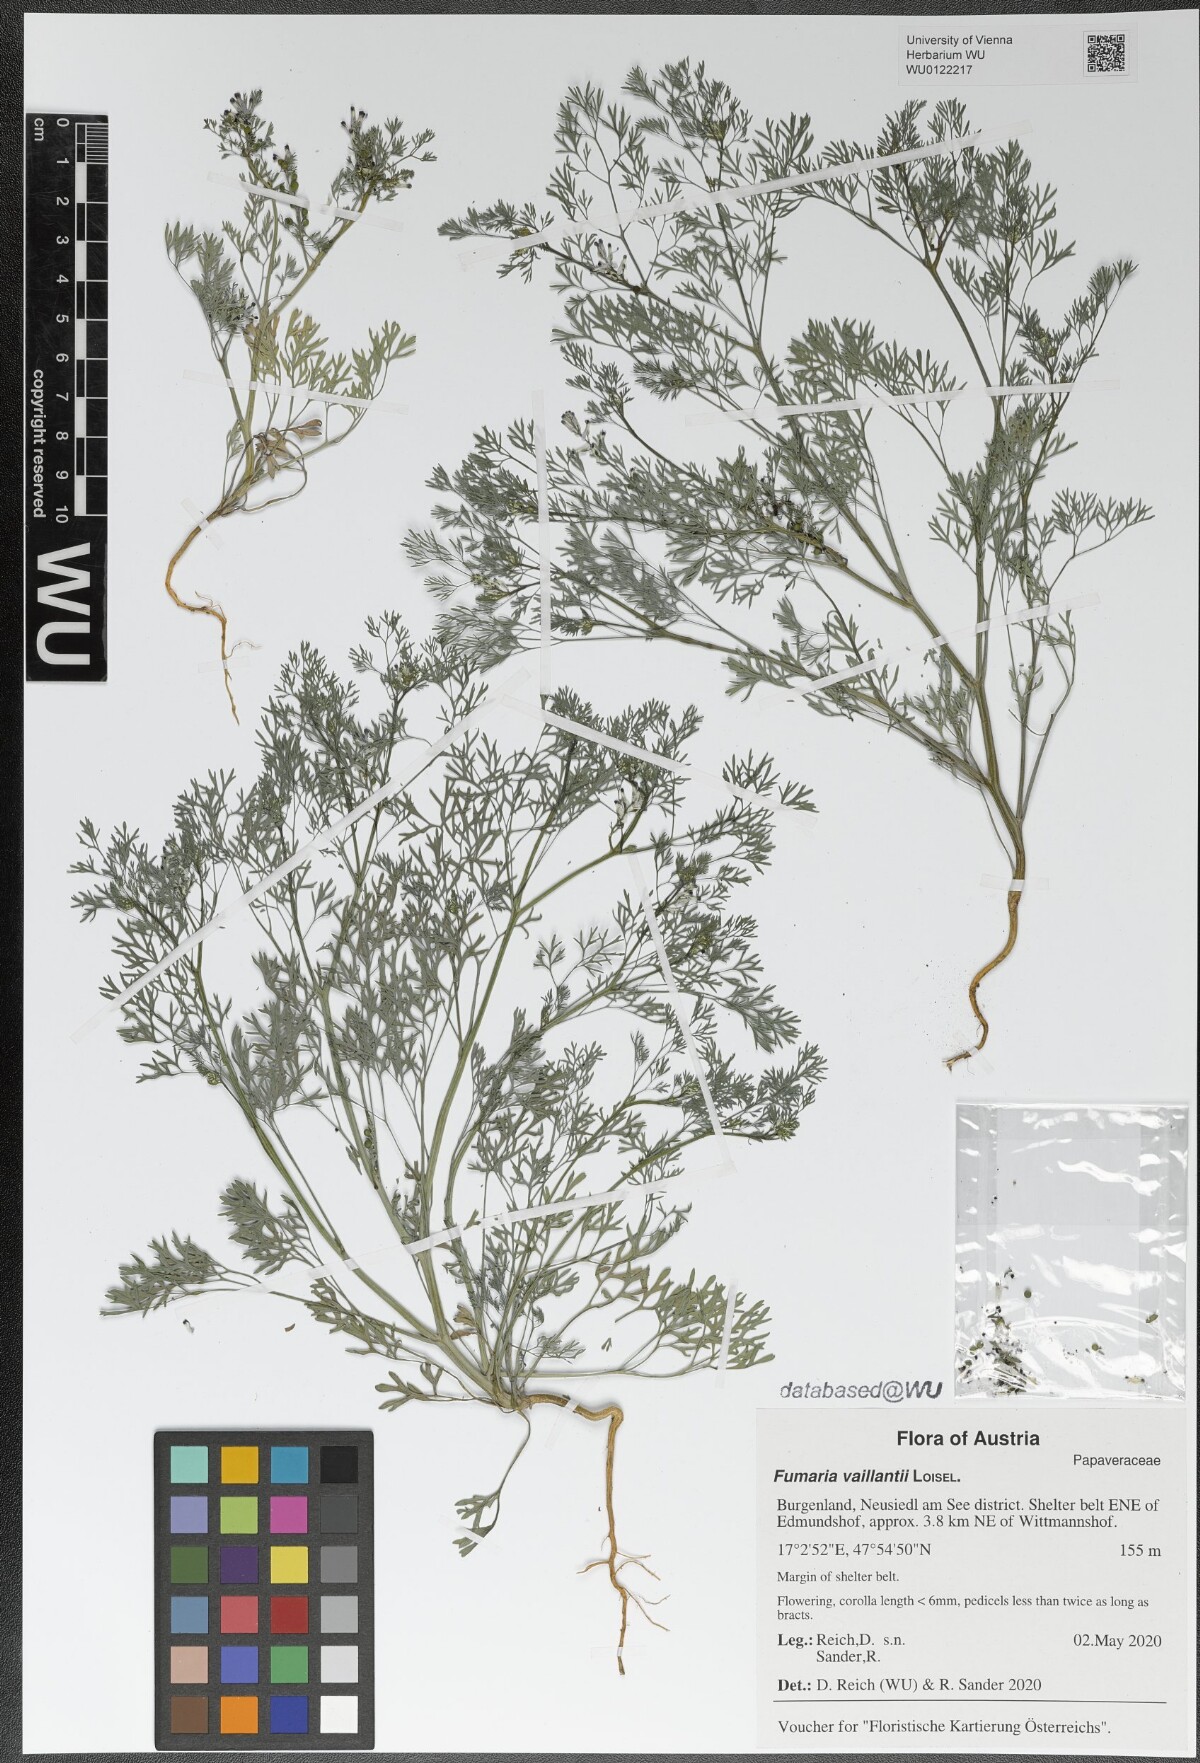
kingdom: Plantae
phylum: Tracheophyta
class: Magnoliopsida
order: Ranunculales
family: Papaveraceae
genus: Fumaria
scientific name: Fumaria vaillantii
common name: Few-flowered fumitory
